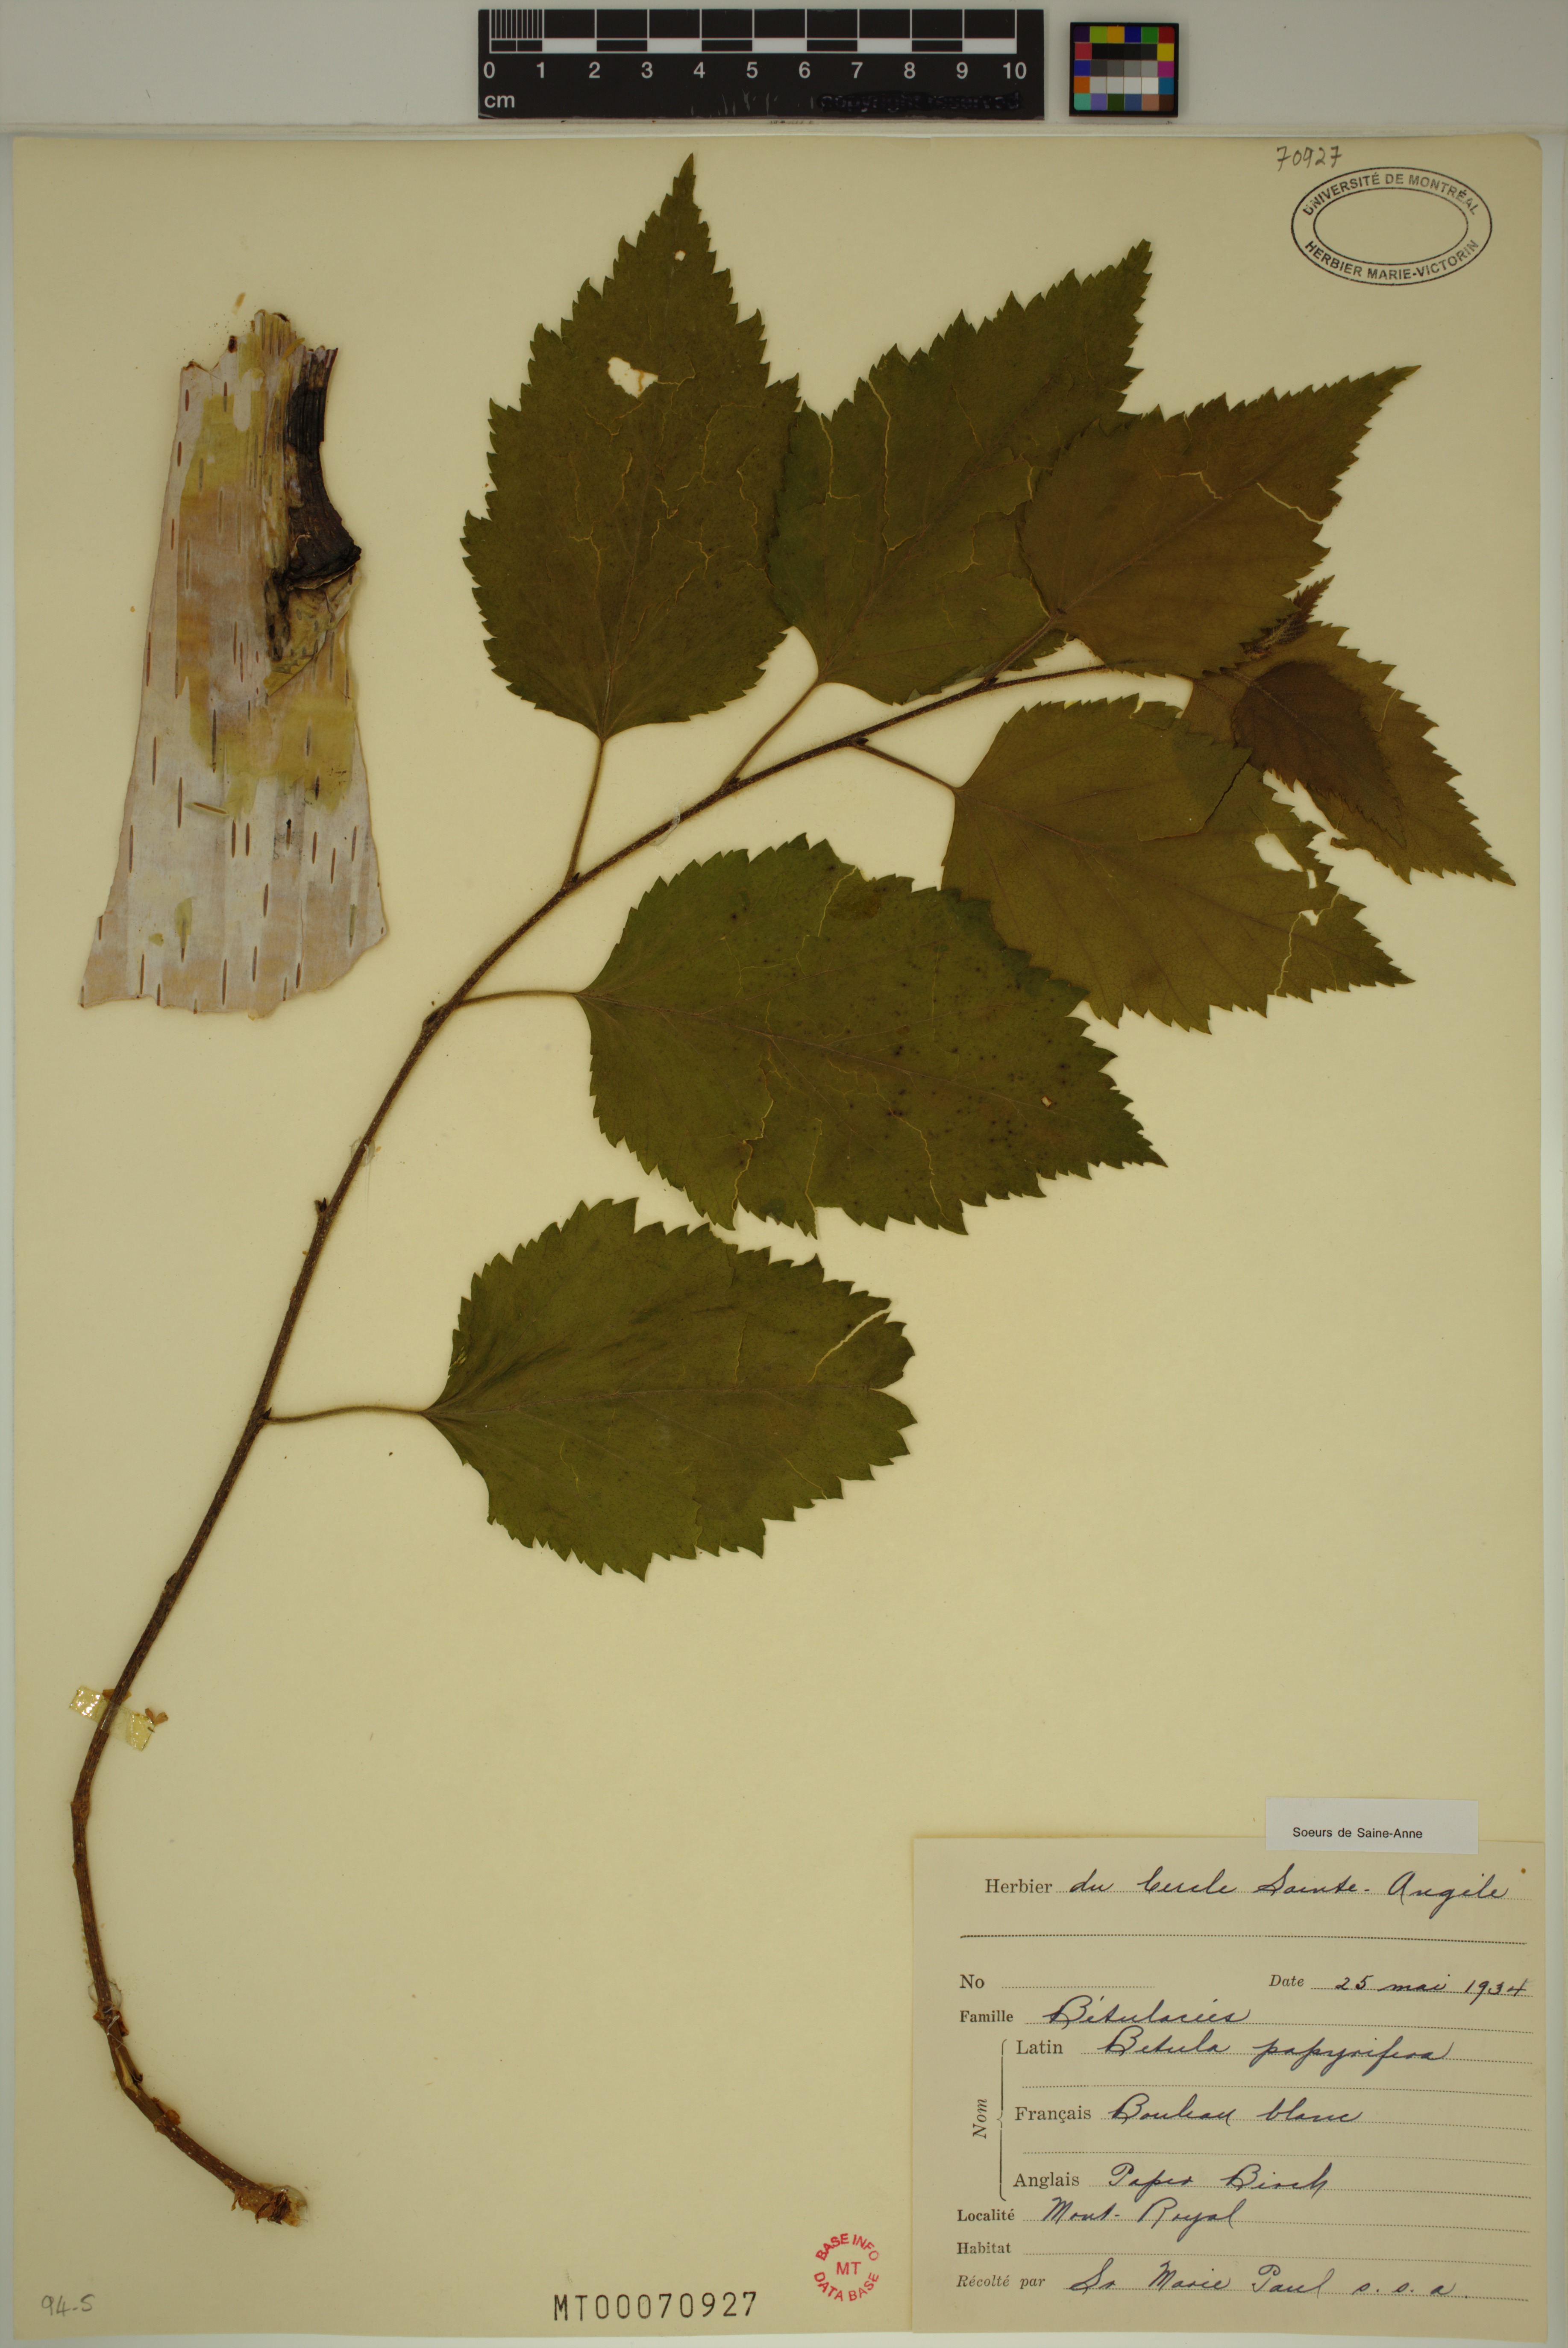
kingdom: Plantae
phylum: Tracheophyta
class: Magnoliopsida
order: Fagales
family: Betulaceae
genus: Betula
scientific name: Betula papyrifera
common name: Paper birch
